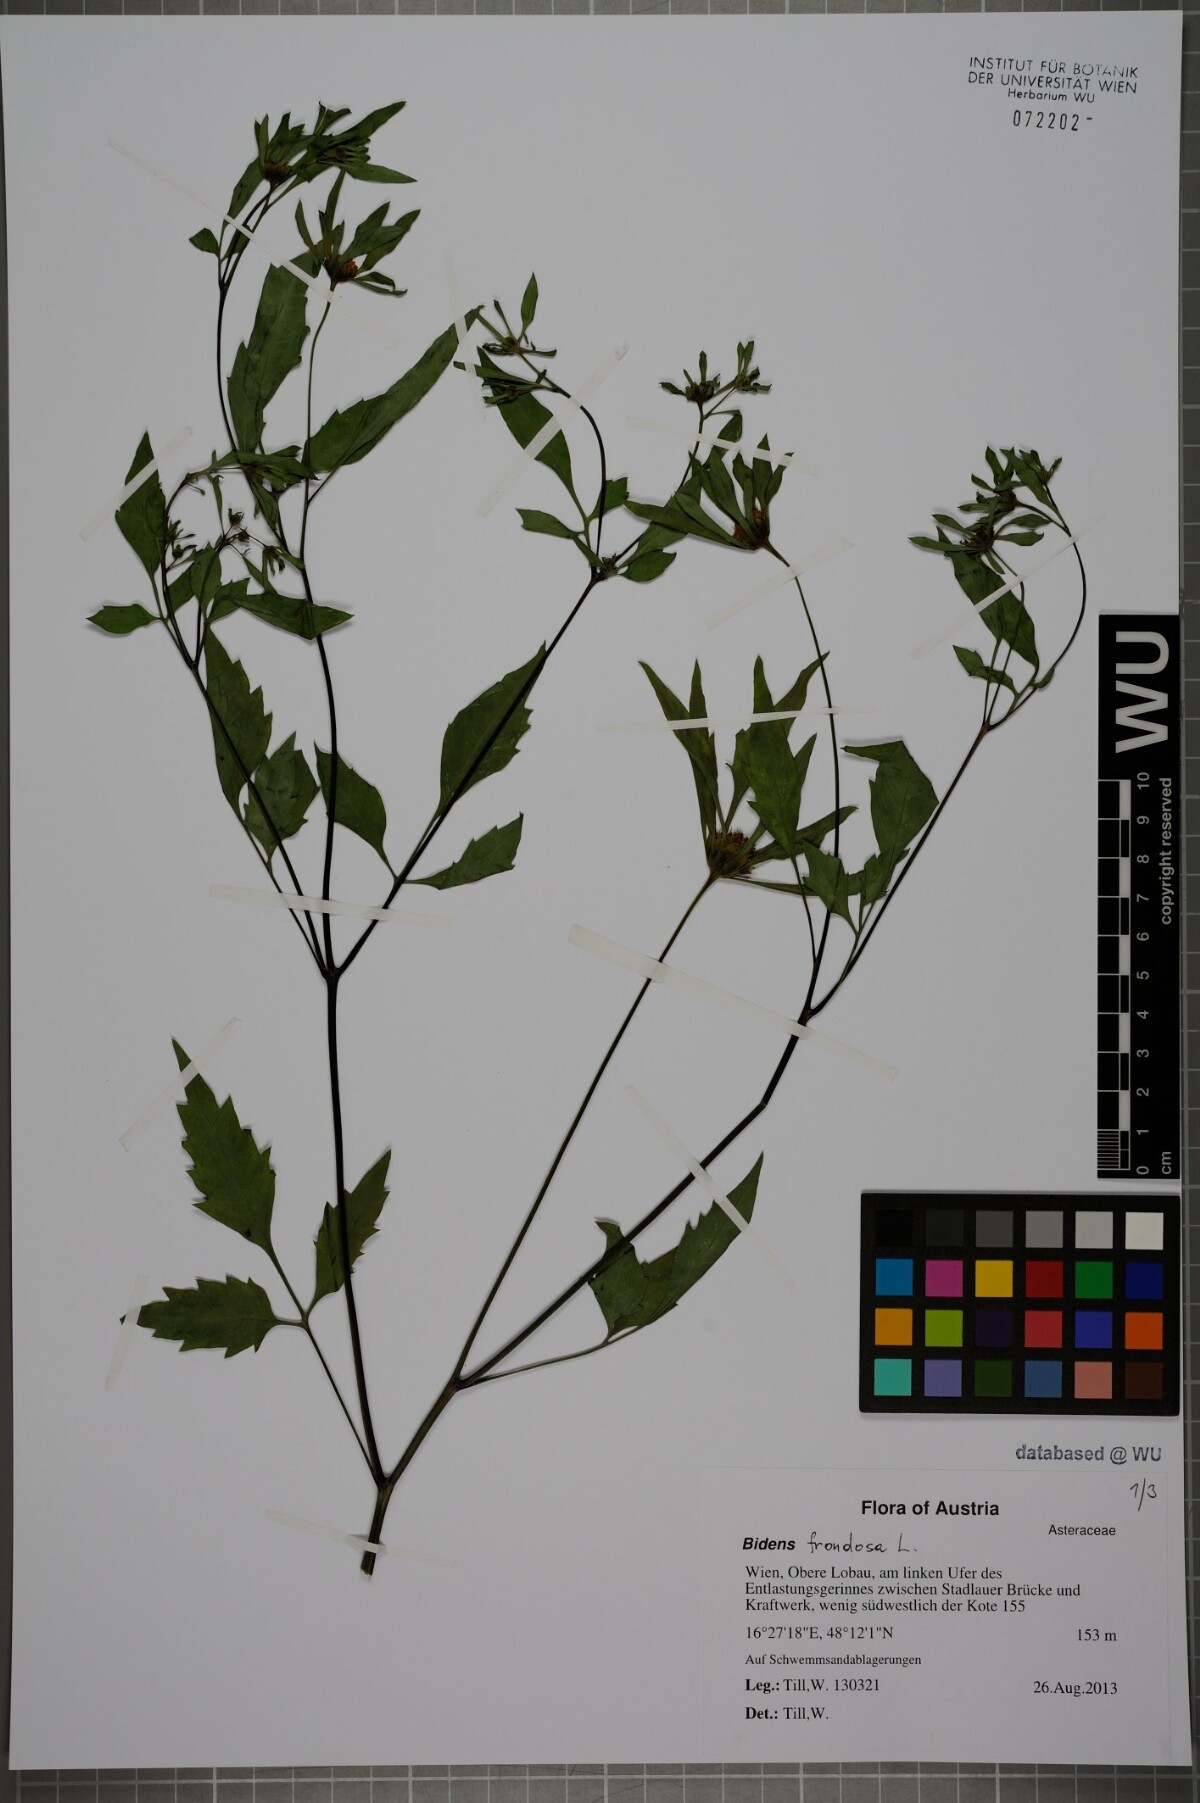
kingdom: Plantae
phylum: Tracheophyta
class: Magnoliopsida
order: Asterales
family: Asteraceae
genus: Bidens
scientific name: Bidens frondosa
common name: Beggarticks
